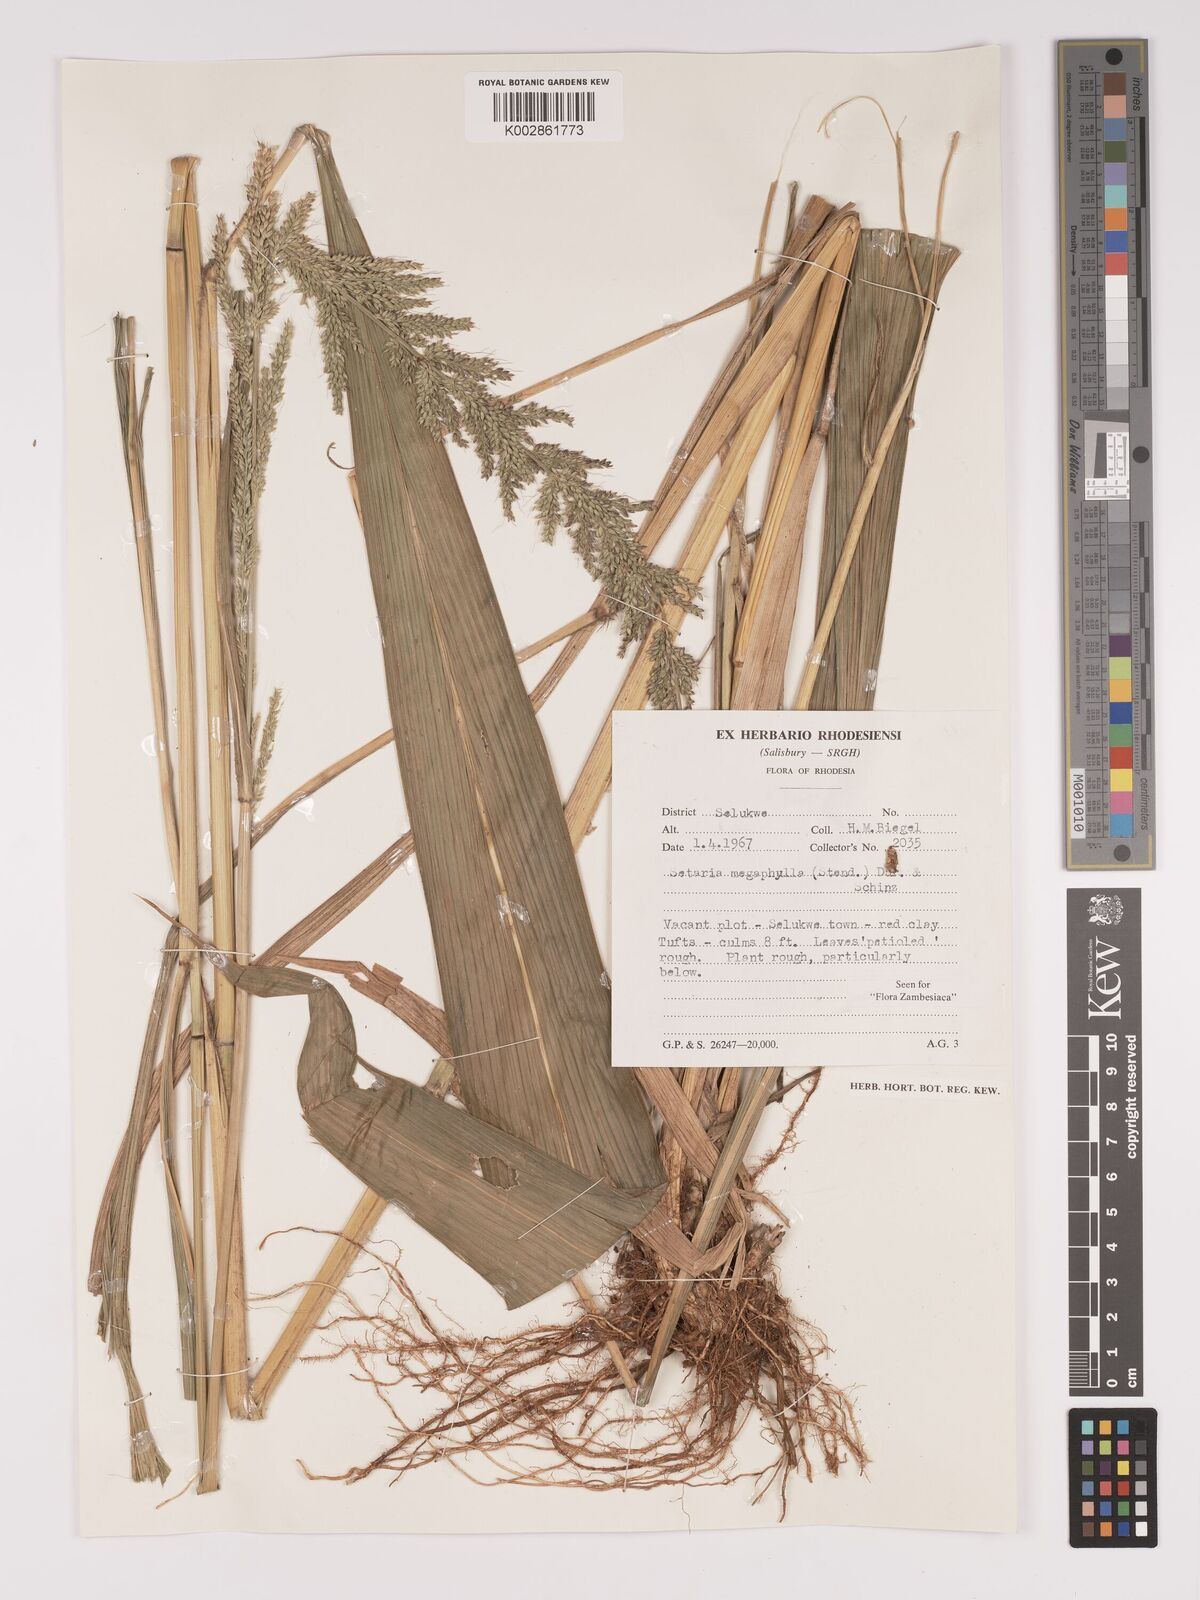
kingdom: Plantae
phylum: Tracheophyta
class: Liliopsida
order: Poales
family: Poaceae
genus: Setaria
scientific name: Setaria megaphylla
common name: Bigleaf bristlegrass
